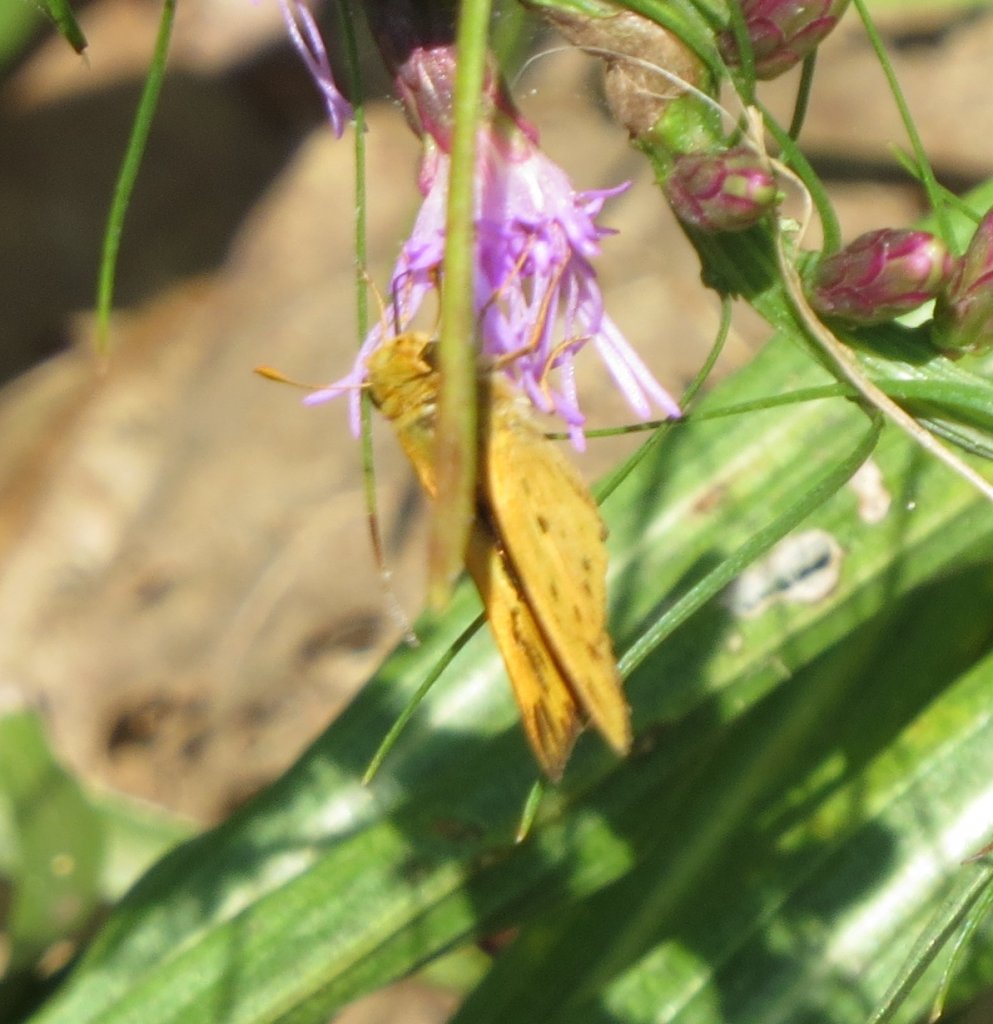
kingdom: Animalia
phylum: Arthropoda
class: Insecta
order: Lepidoptera
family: Hesperiidae
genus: Hylephila
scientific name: Hylephila phyleus
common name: Fiery Skipper
